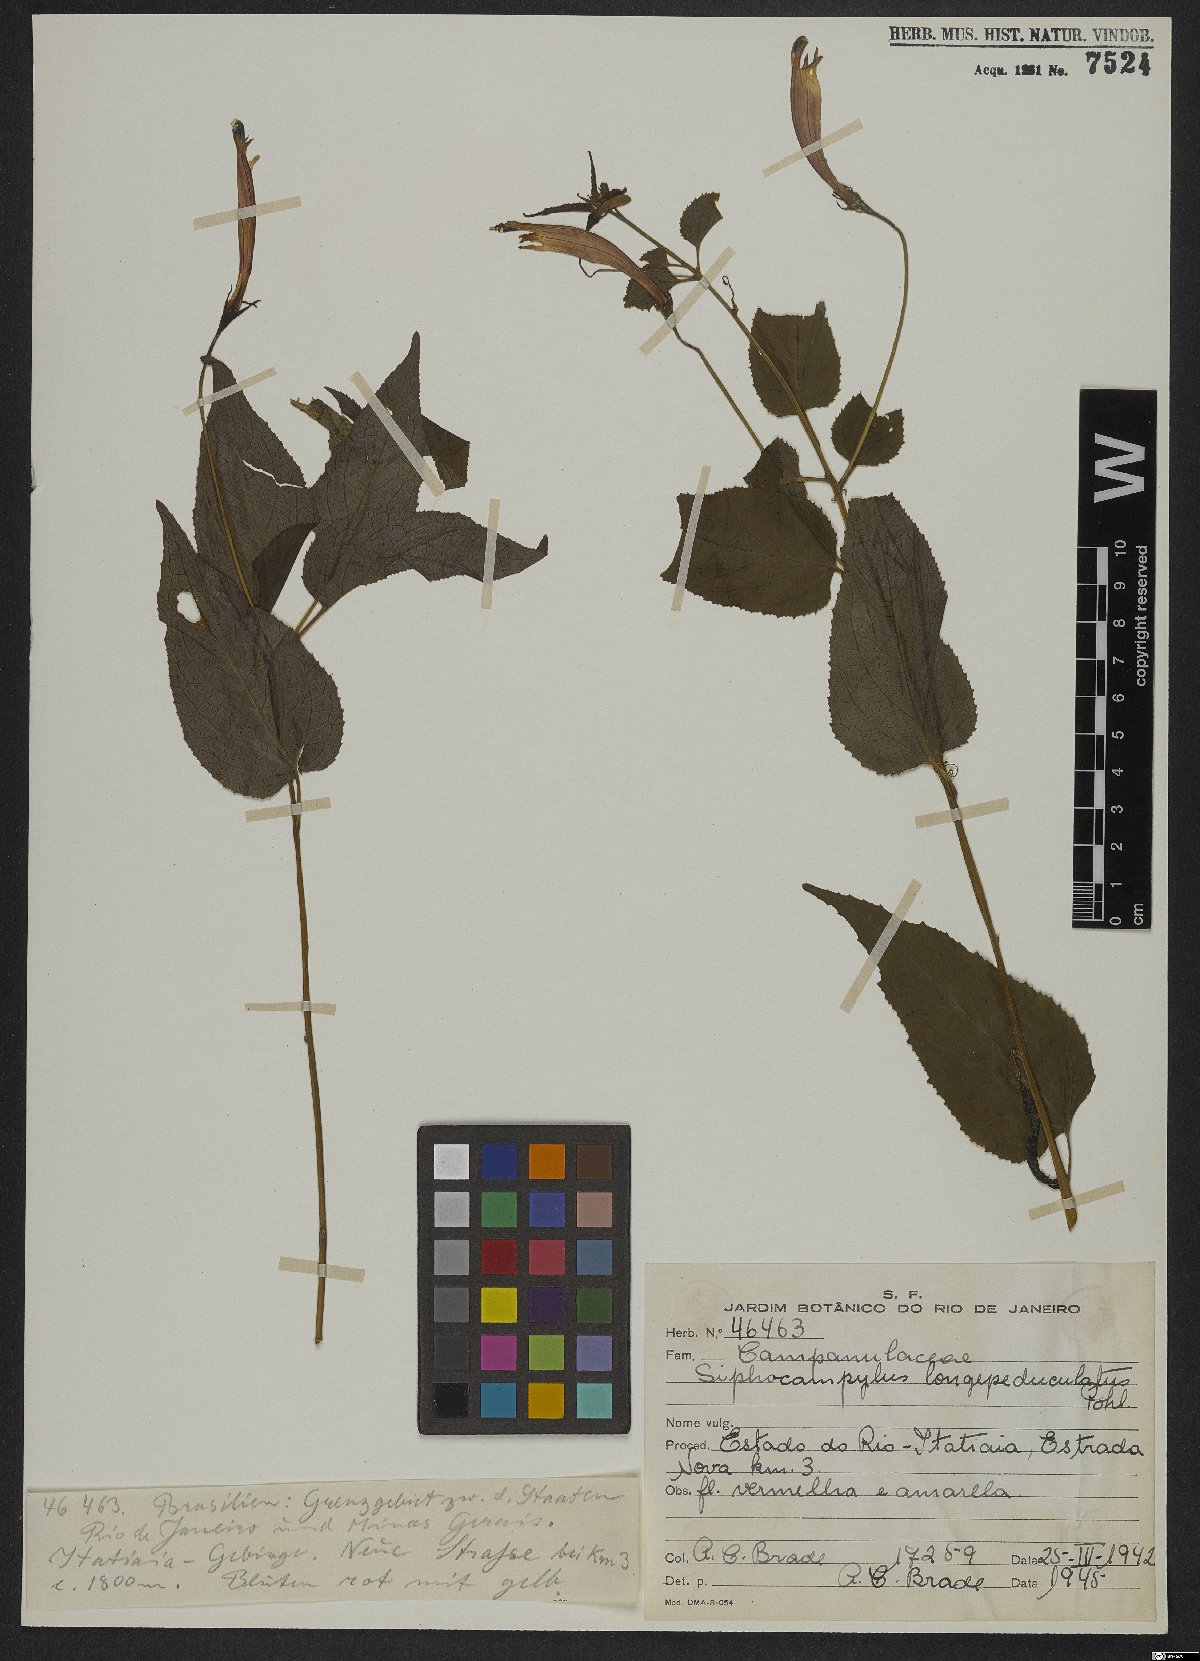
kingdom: Plantae
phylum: Tracheophyta
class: Magnoliopsida
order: Asterales
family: Campanulaceae
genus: Siphocampylus
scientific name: Siphocampylus longipedunculatus
